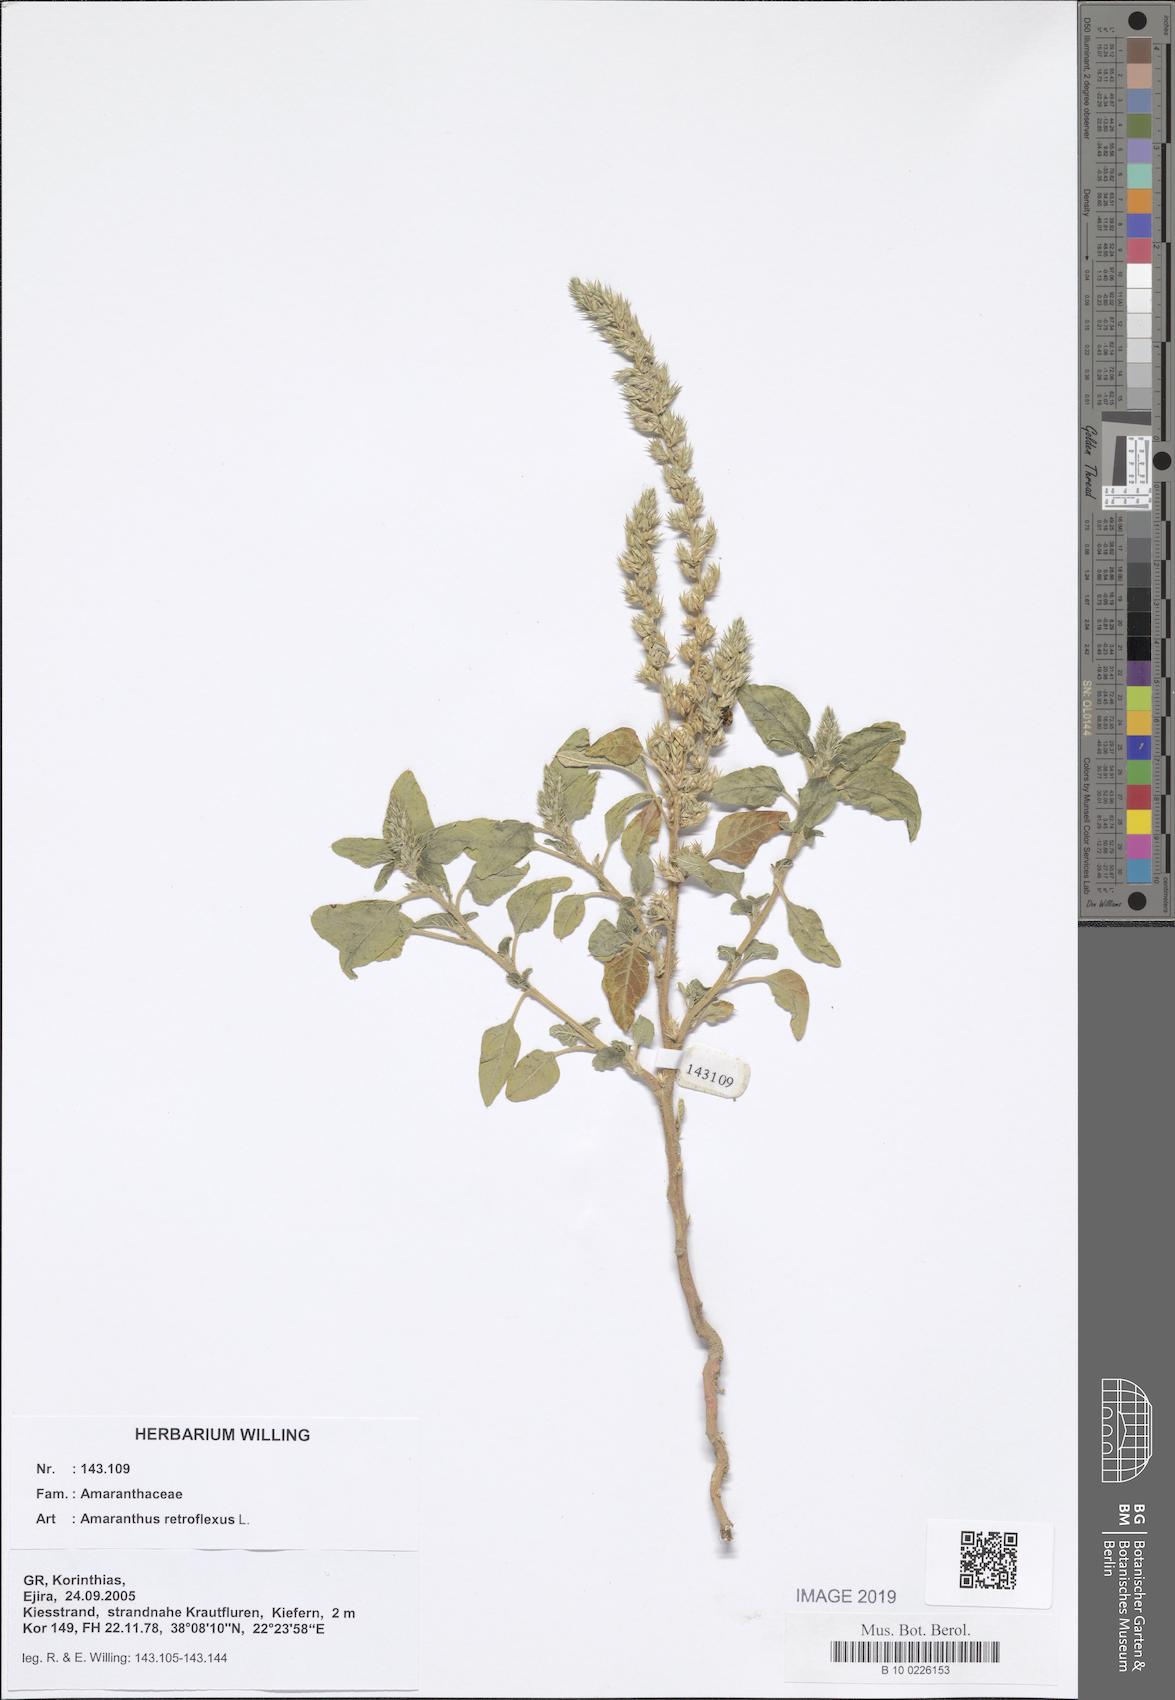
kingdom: Plantae
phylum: Tracheophyta
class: Magnoliopsida
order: Caryophyllales
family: Amaranthaceae
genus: Amaranthus
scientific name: Amaranthus retroflexus
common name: Redroot amaranth
